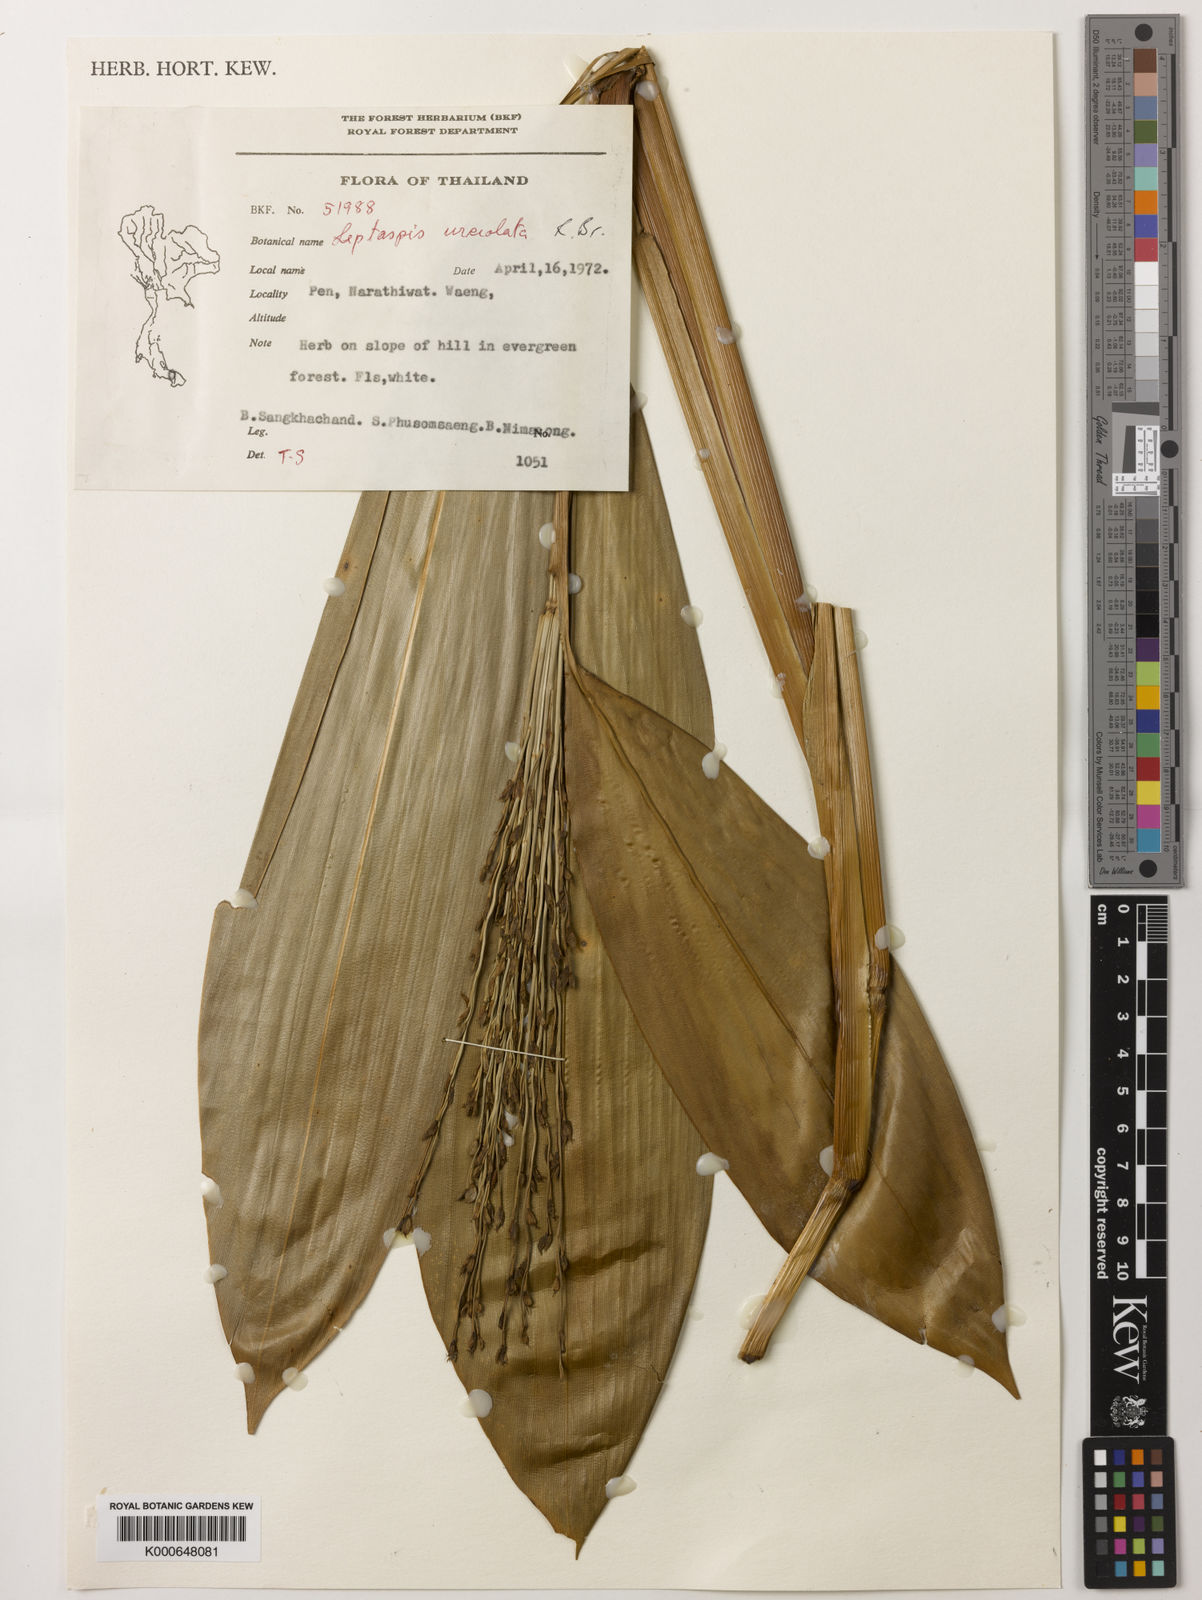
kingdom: Plantae
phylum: Tracheophyta
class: Liliopsida
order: Poales
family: Poaceae
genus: Scrotochloa
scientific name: Scrotochloa urceolata
